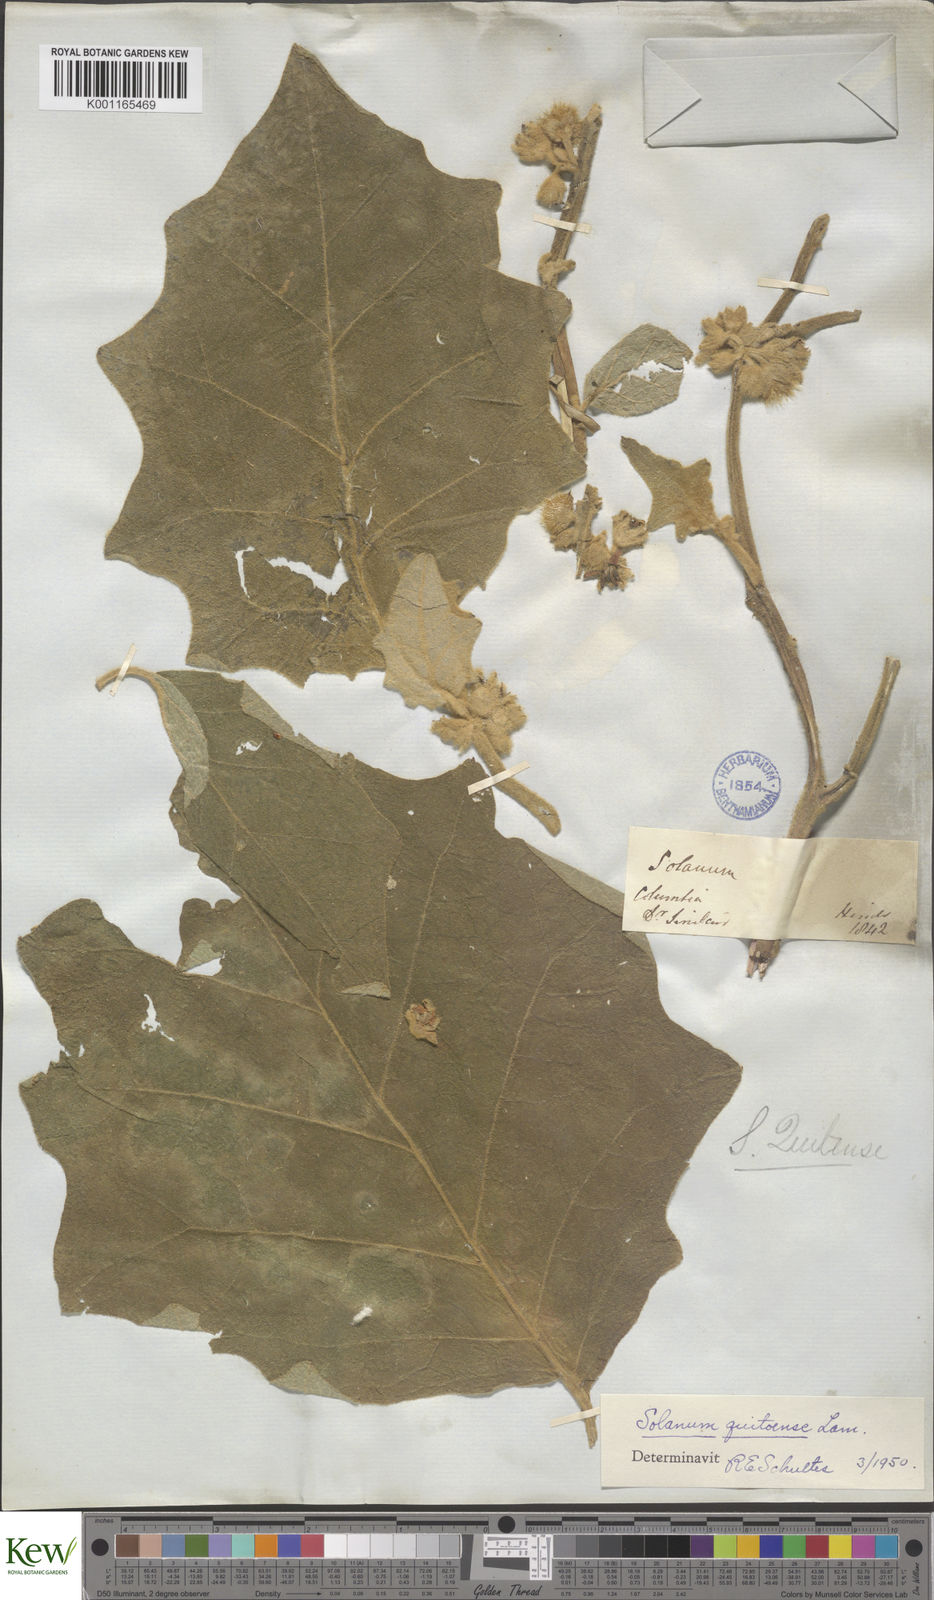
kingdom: Plantae
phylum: Tracheophyta
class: Magnoliopsida
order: Solanales
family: Solanaceae
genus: Solanum
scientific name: Solanum quitoense
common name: Quito-orange
